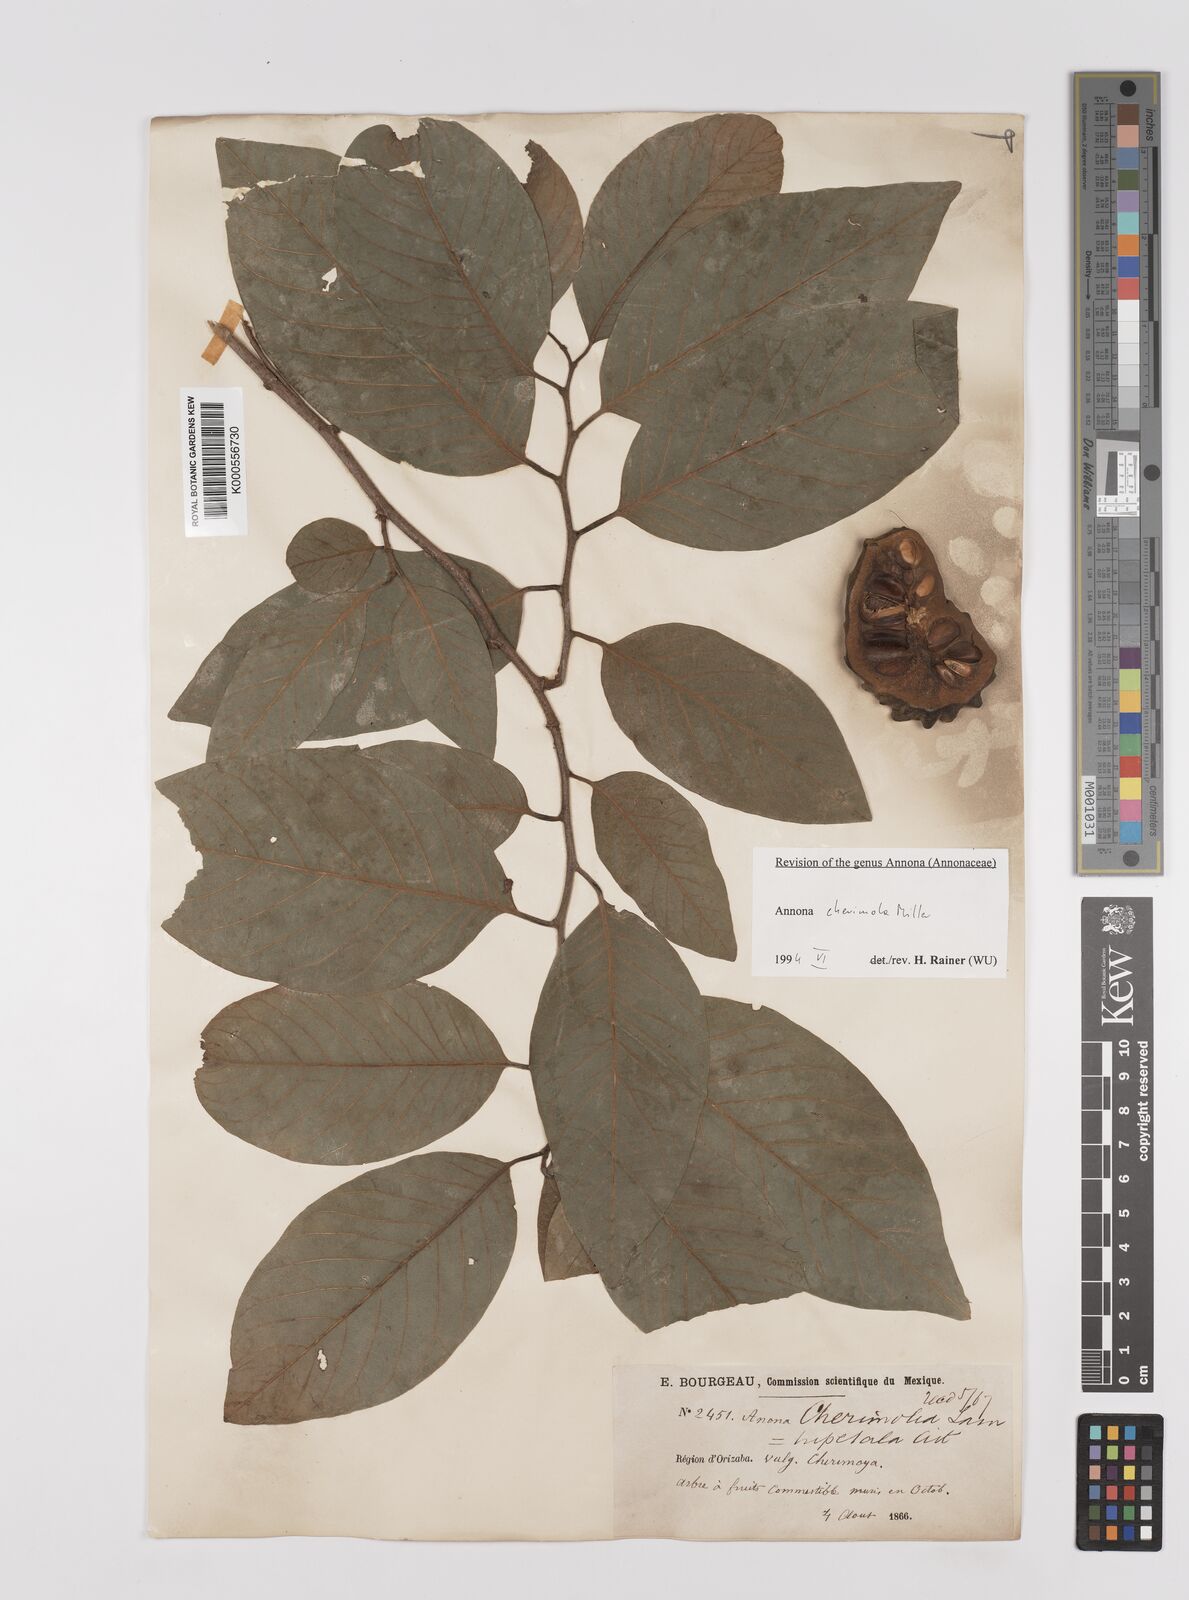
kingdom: Plantae
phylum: Tracheophyta
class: Magnoliopsida
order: Magnoliales
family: Annonaceae
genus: Annona
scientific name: Annona cherimola
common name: Cherimoya
